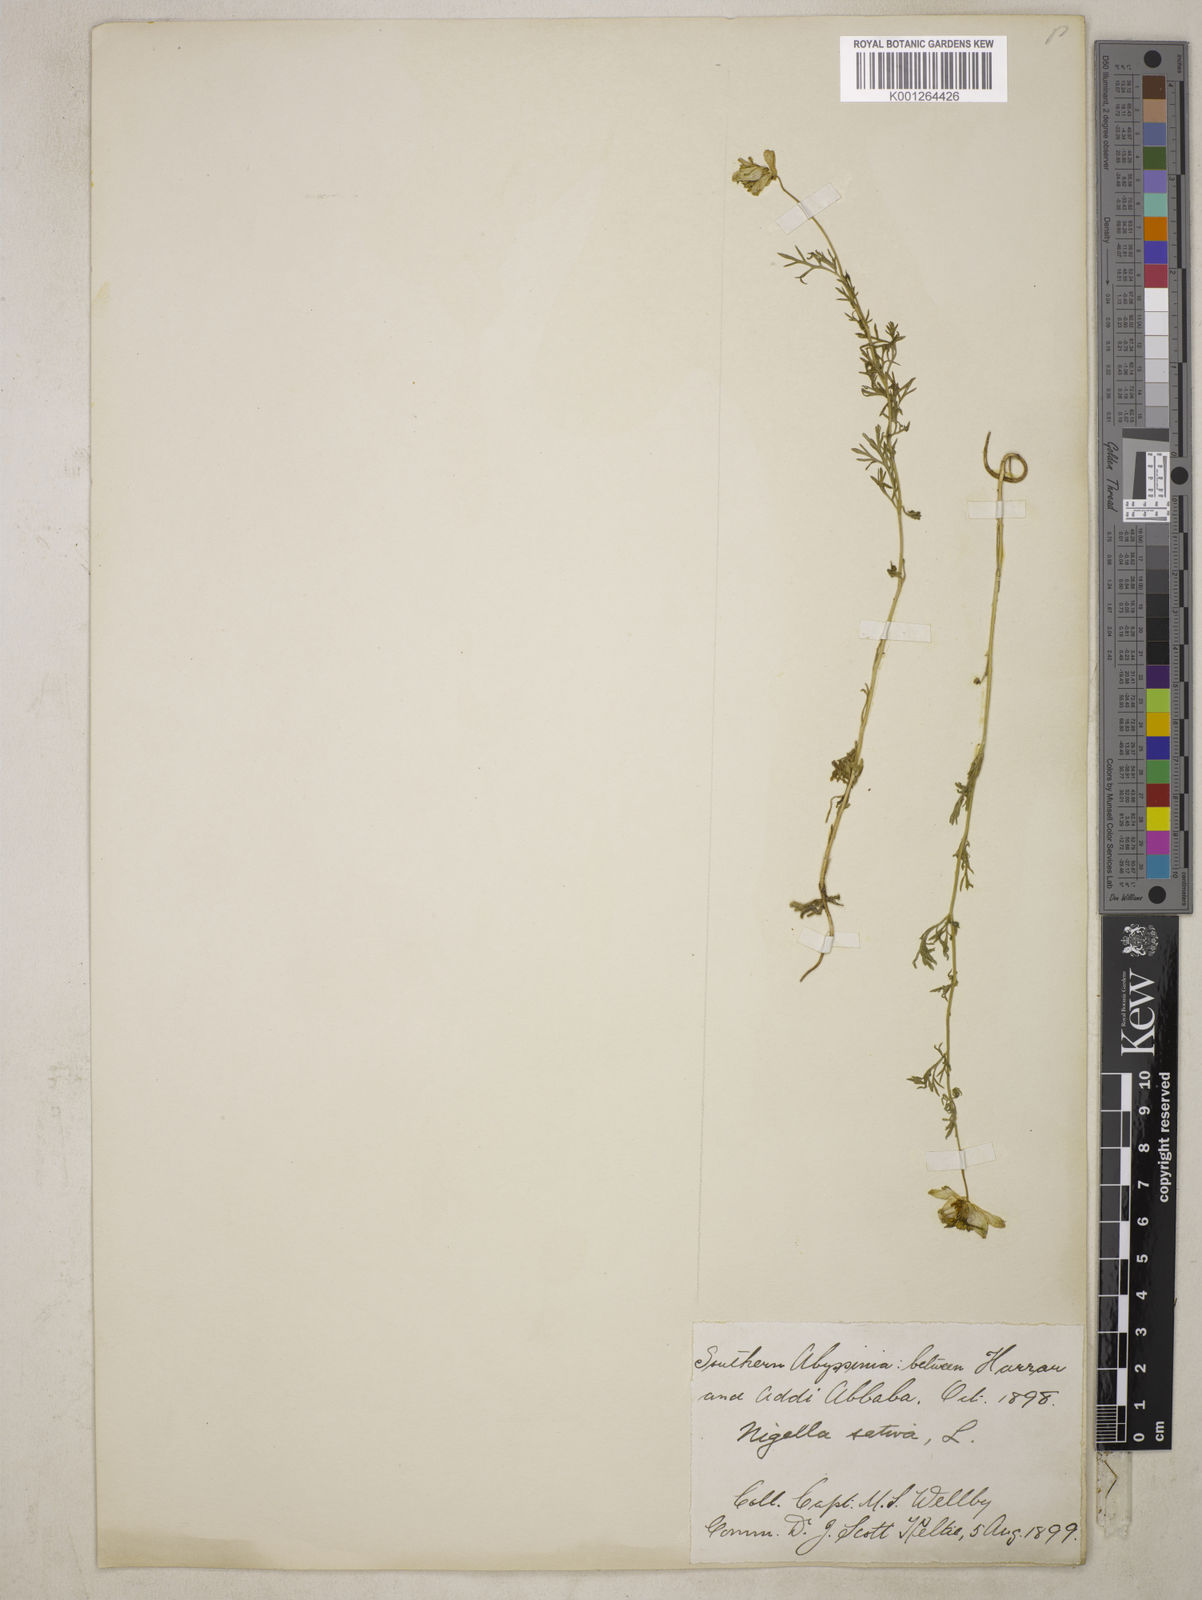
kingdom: Plantae
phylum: Tracheophyta
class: Magnoliopsida
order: Ranunculales
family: Ranunculaceae
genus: Nigella
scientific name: Nigella sativa
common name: Black-cumin
